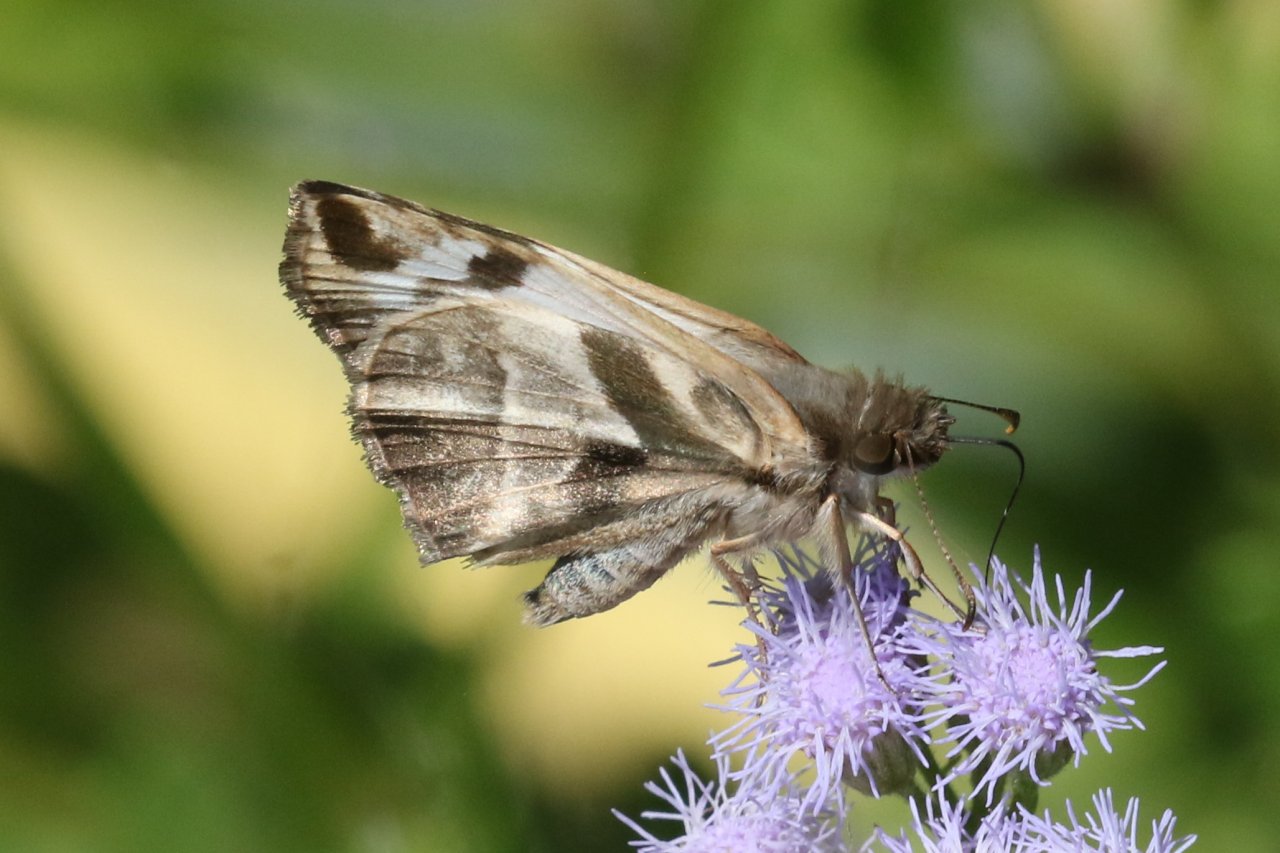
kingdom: Animalia
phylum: Arthropoda
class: Insecta
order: Lepidoptera
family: Hesperiidae
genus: Heliopetes
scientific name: Heliopetes laviana
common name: Laviana White-Skipper
